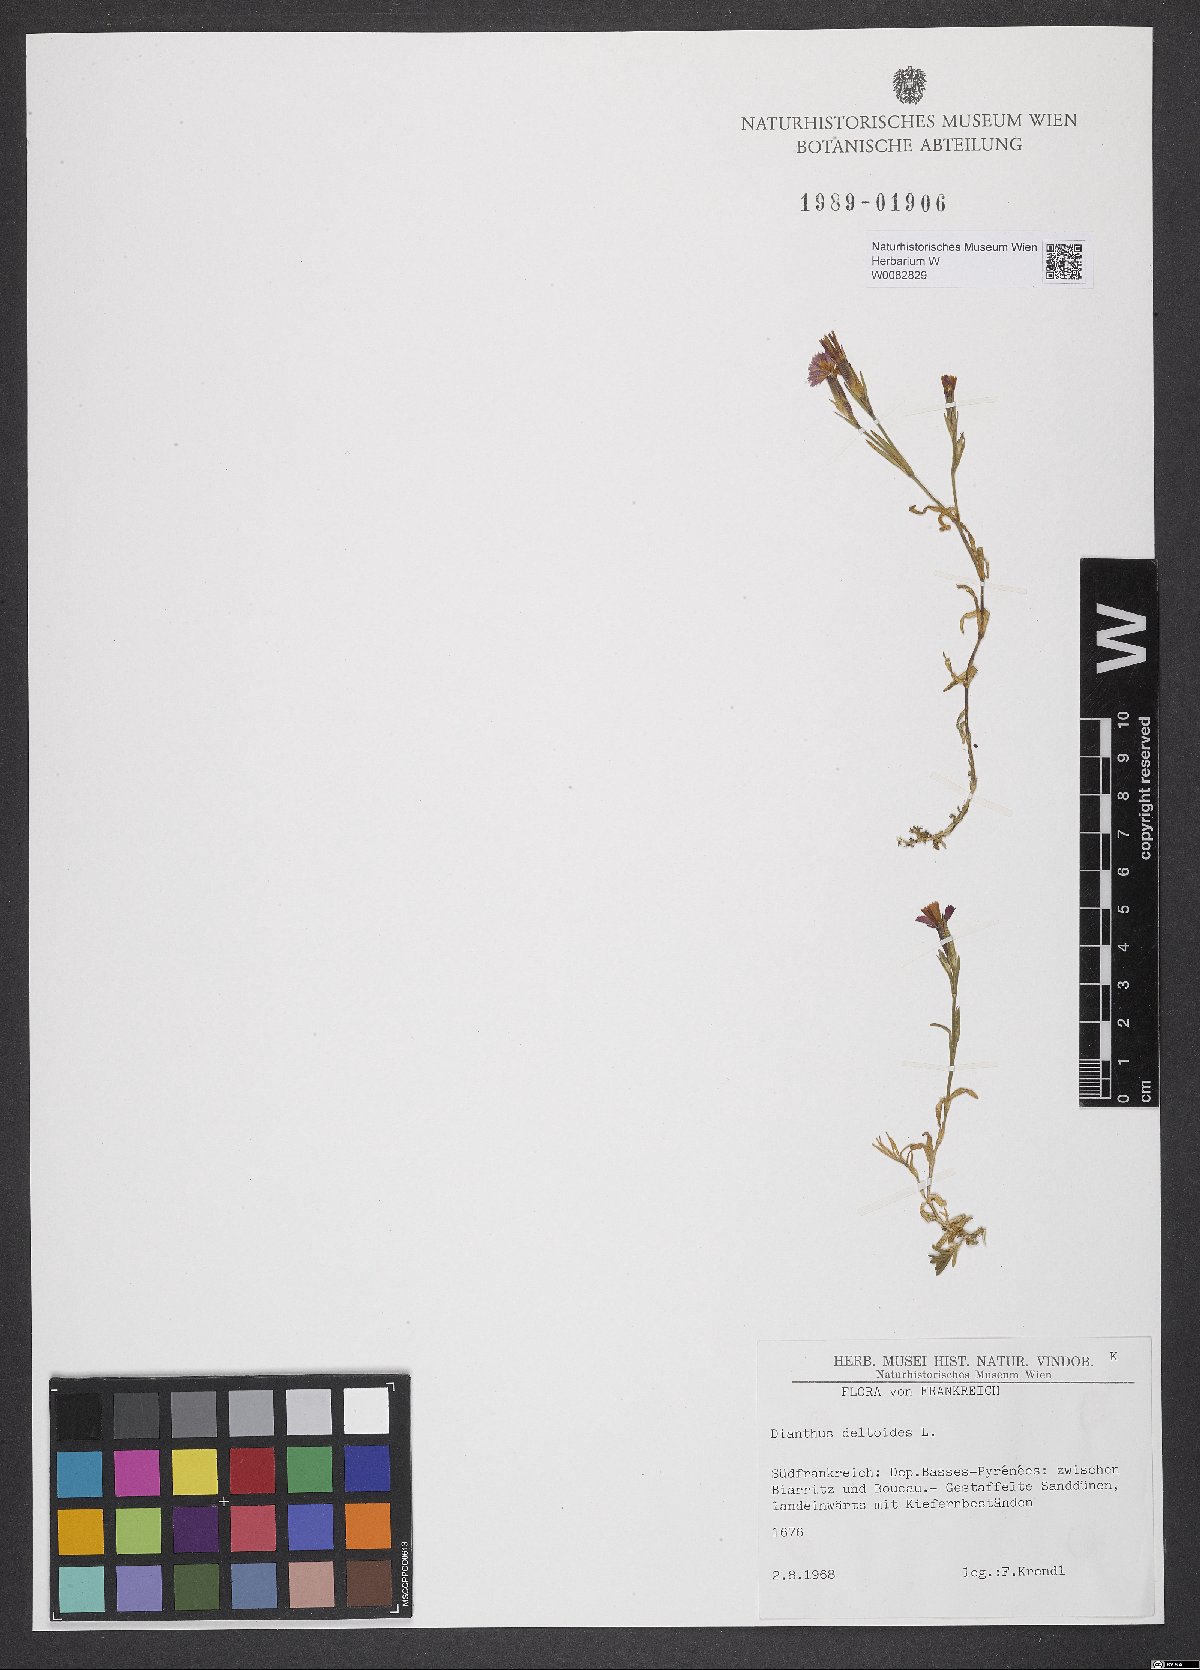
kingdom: Plantae
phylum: Tracheophyta
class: Magnoliopsida
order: Caryophyllales
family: Caryophyllaceae
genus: Dianthus
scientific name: Dianthus deltoides
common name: Maiden pink
